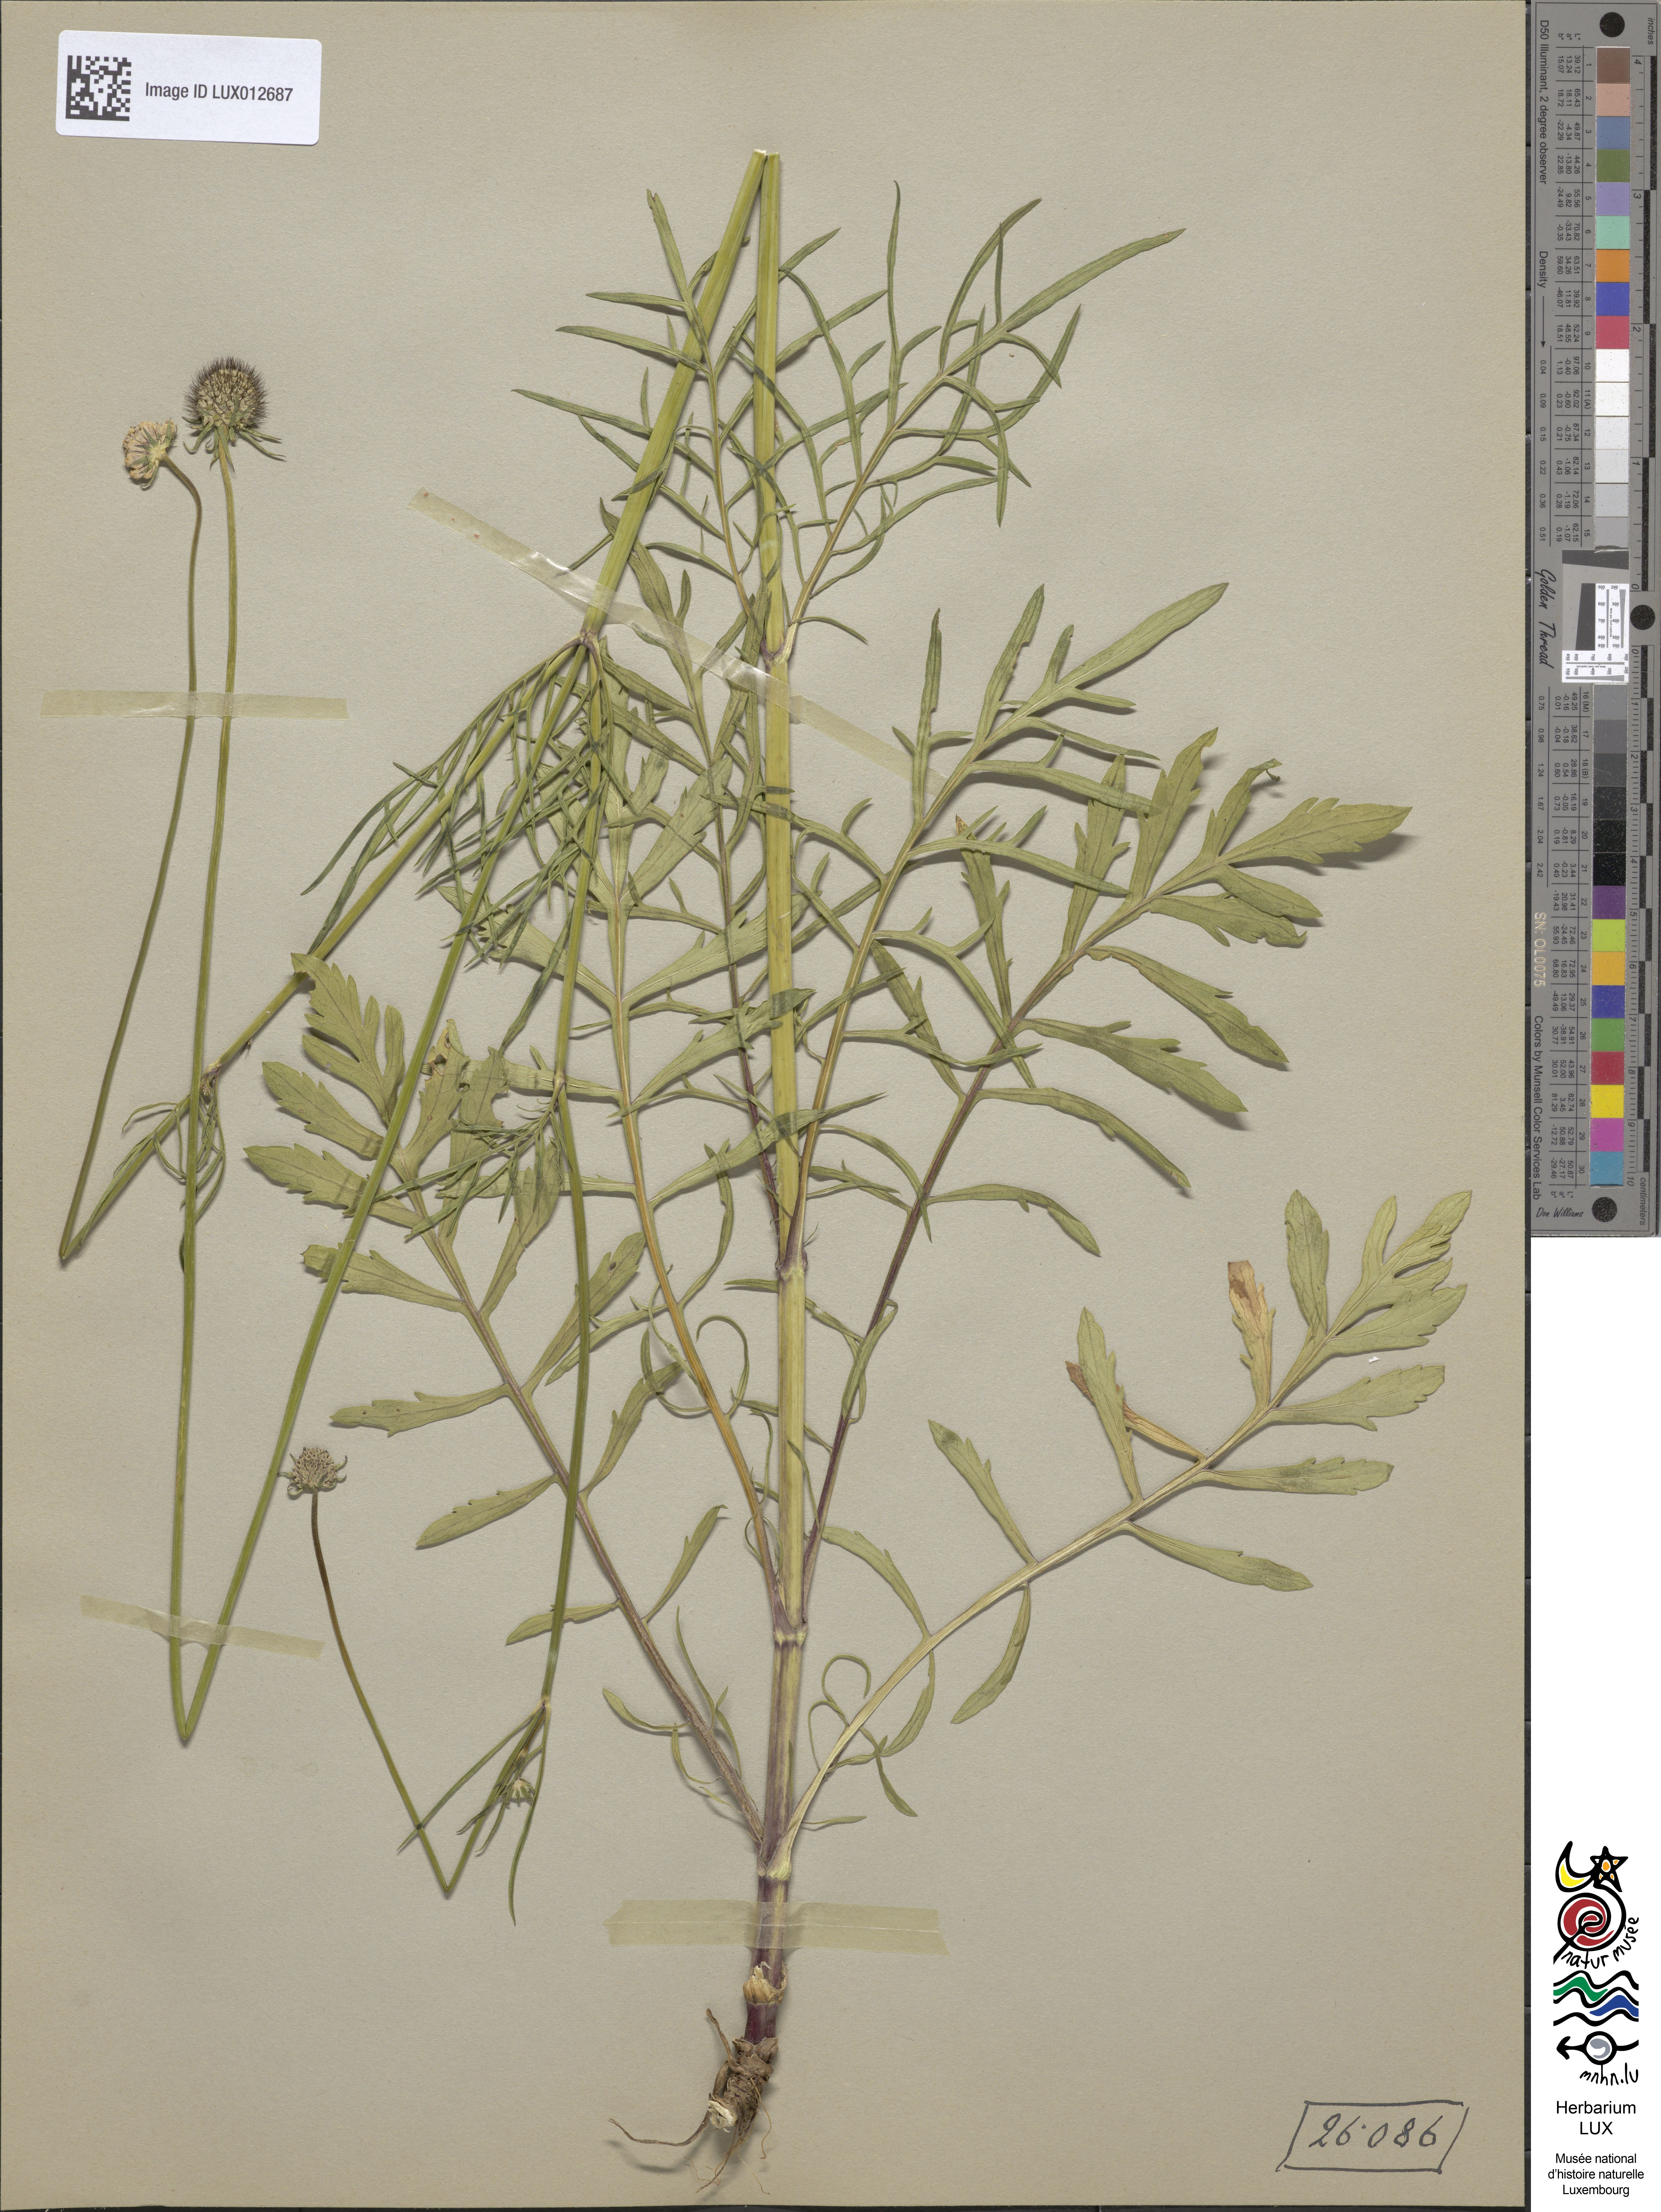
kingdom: Plantae
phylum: Tracheophyta
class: Magnoliopsida
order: Dipsacales
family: Caprifoliaceae
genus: Scabiosa
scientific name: Scabiosa columbaria
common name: Small scabious
